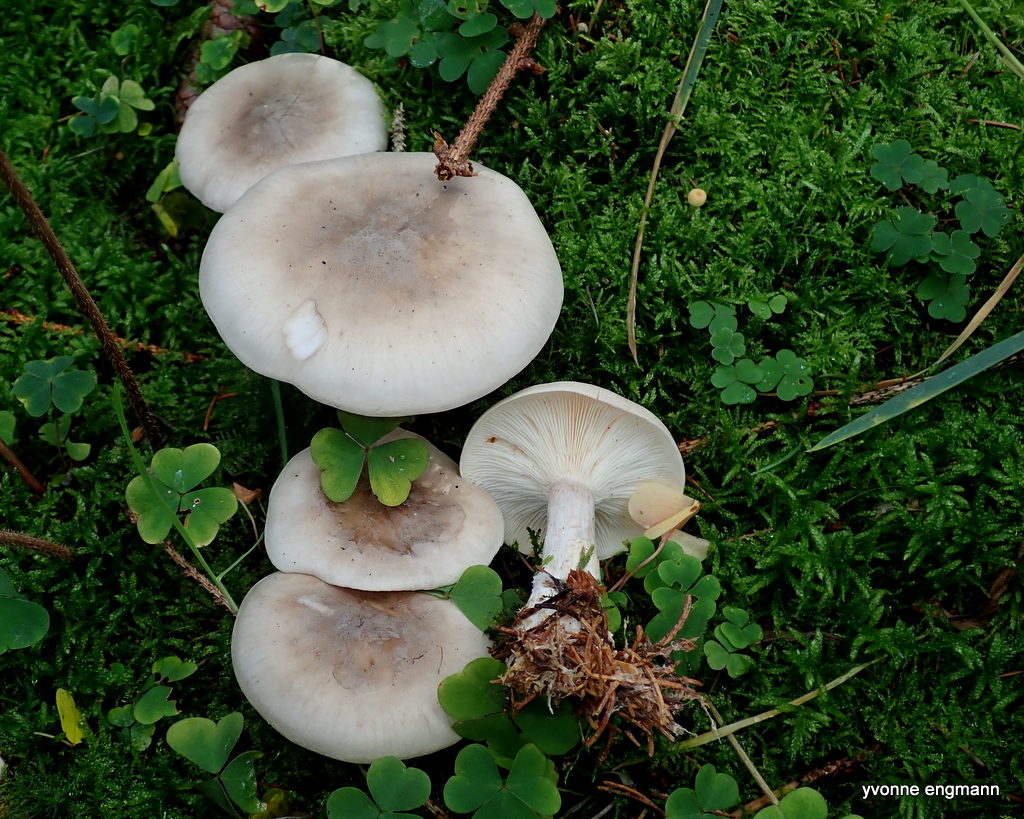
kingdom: Fungi
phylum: Basidiomycota
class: Agaricomycetes
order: Agaricales
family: Tricholomataceae
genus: Clitocybe
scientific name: Clitocybe nebularis
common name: tåge-tragthat
